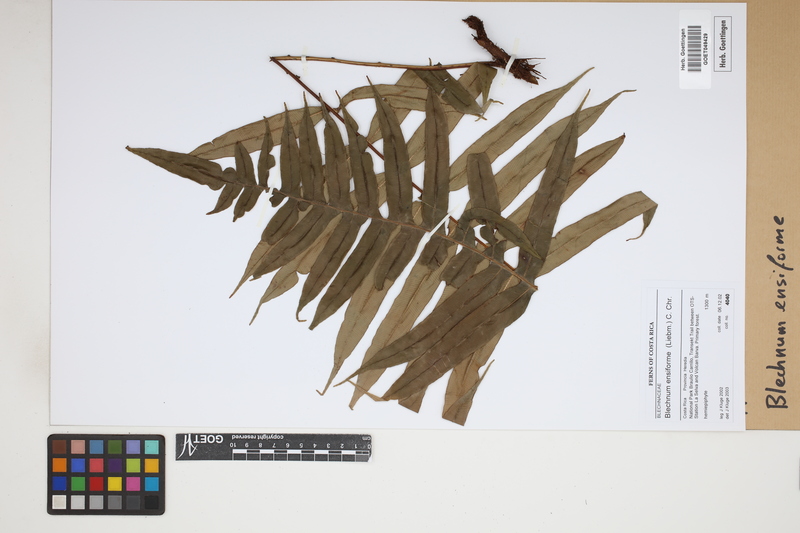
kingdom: Plantae
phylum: Tracheophyta
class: Polypodiopsida
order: Polypodiales
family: Blechnaceae
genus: Lomaridium
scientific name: Lomaridium ensiforme
